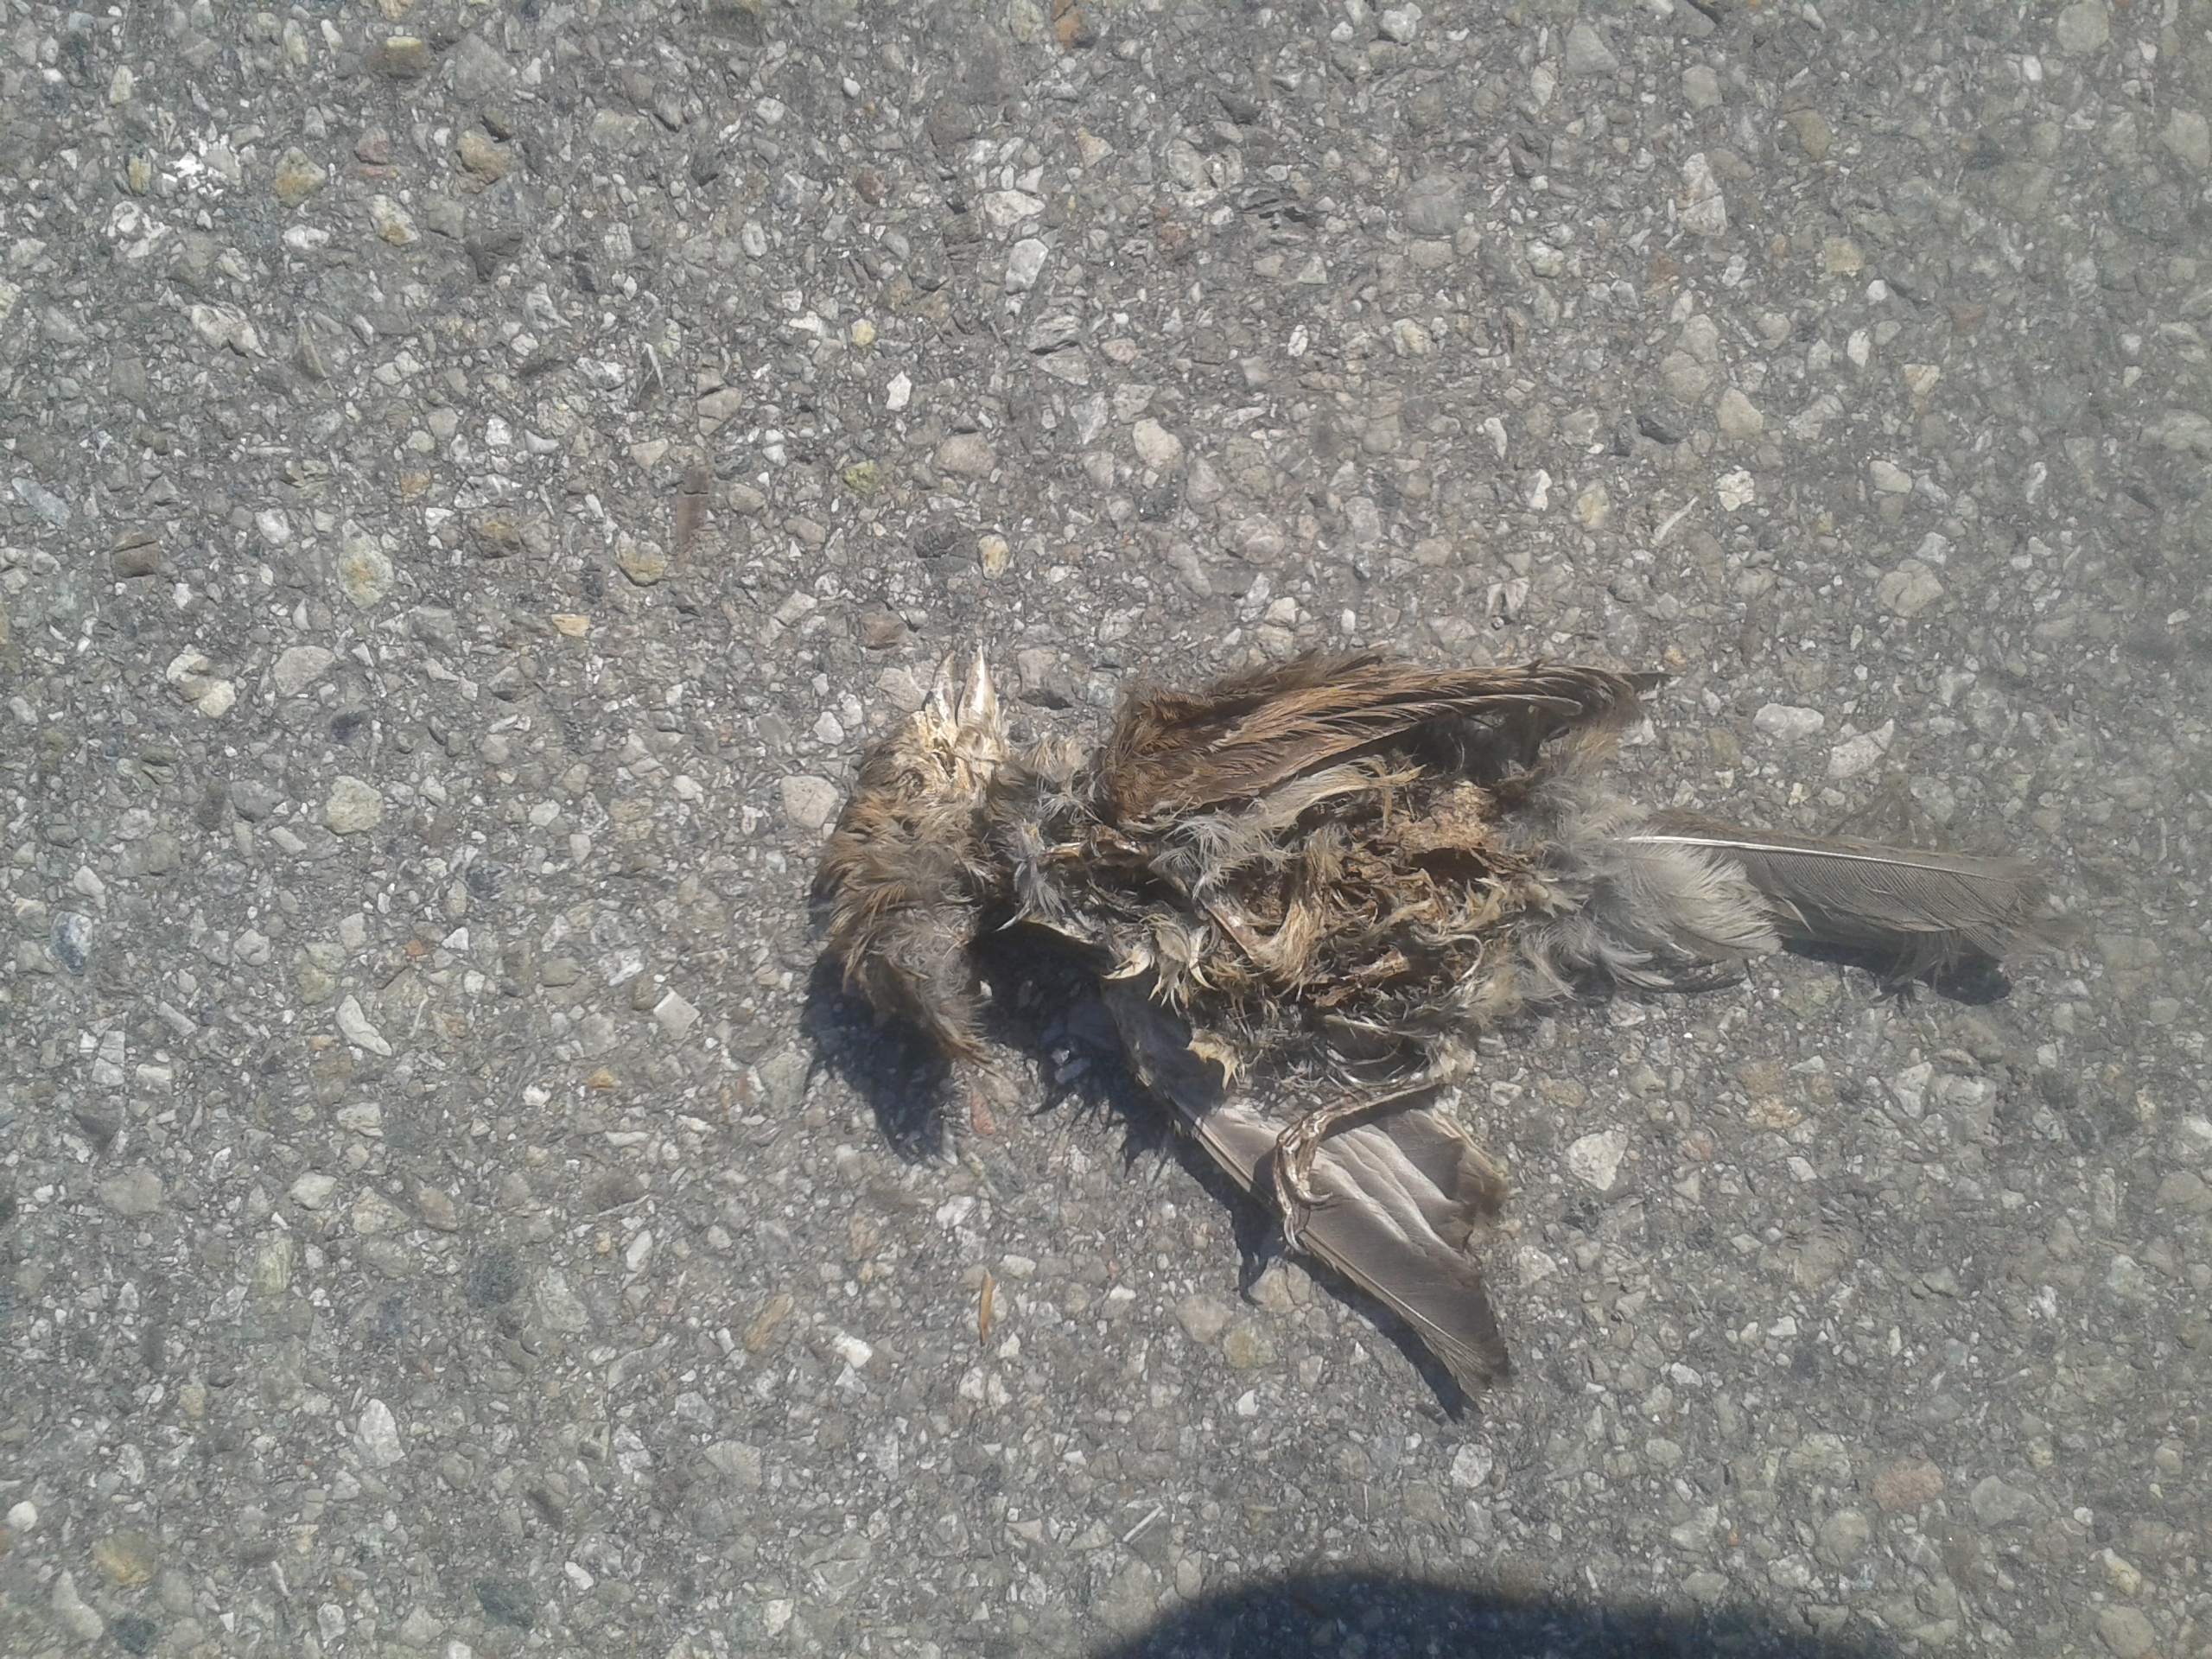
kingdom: Animalia
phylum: Chordata
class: Aves
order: Passeriformes
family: Passeridae
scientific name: Passeridae
